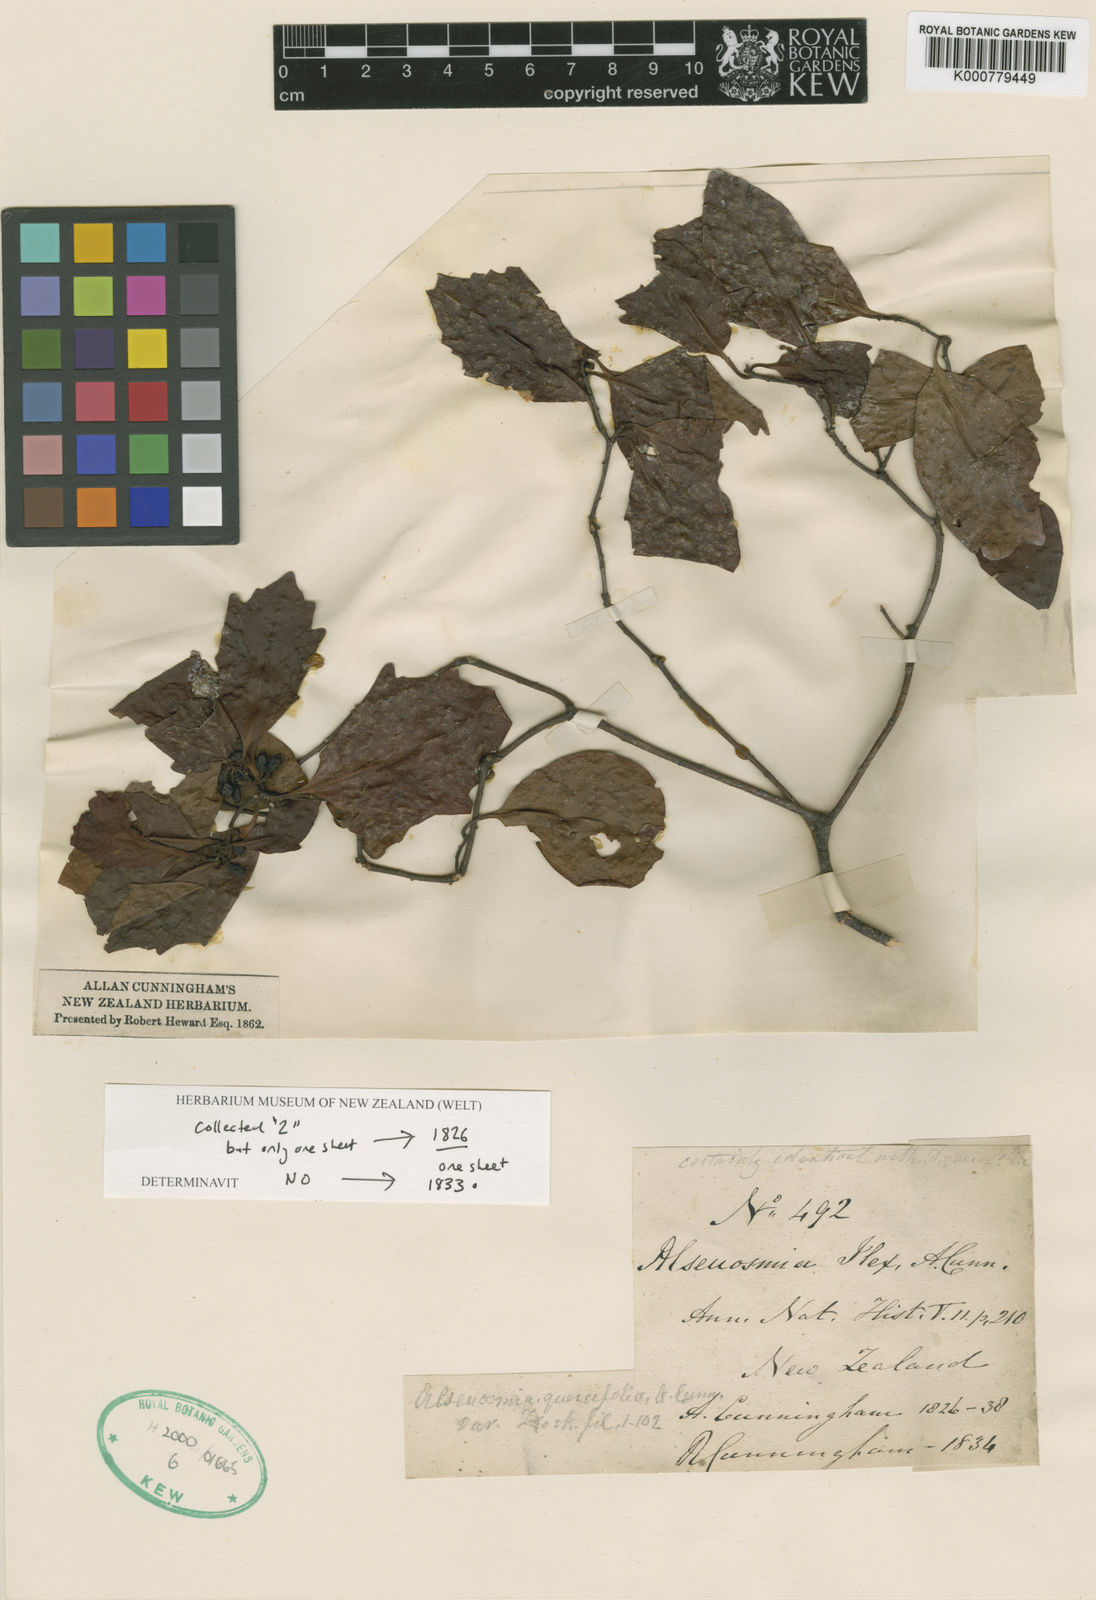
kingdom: Plantae
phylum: Tracheophyta
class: Magnoliopsida
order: Asterales
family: Alseuosmiaceae
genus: Alseuosmia
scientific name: Alseuosmia quercifolia
